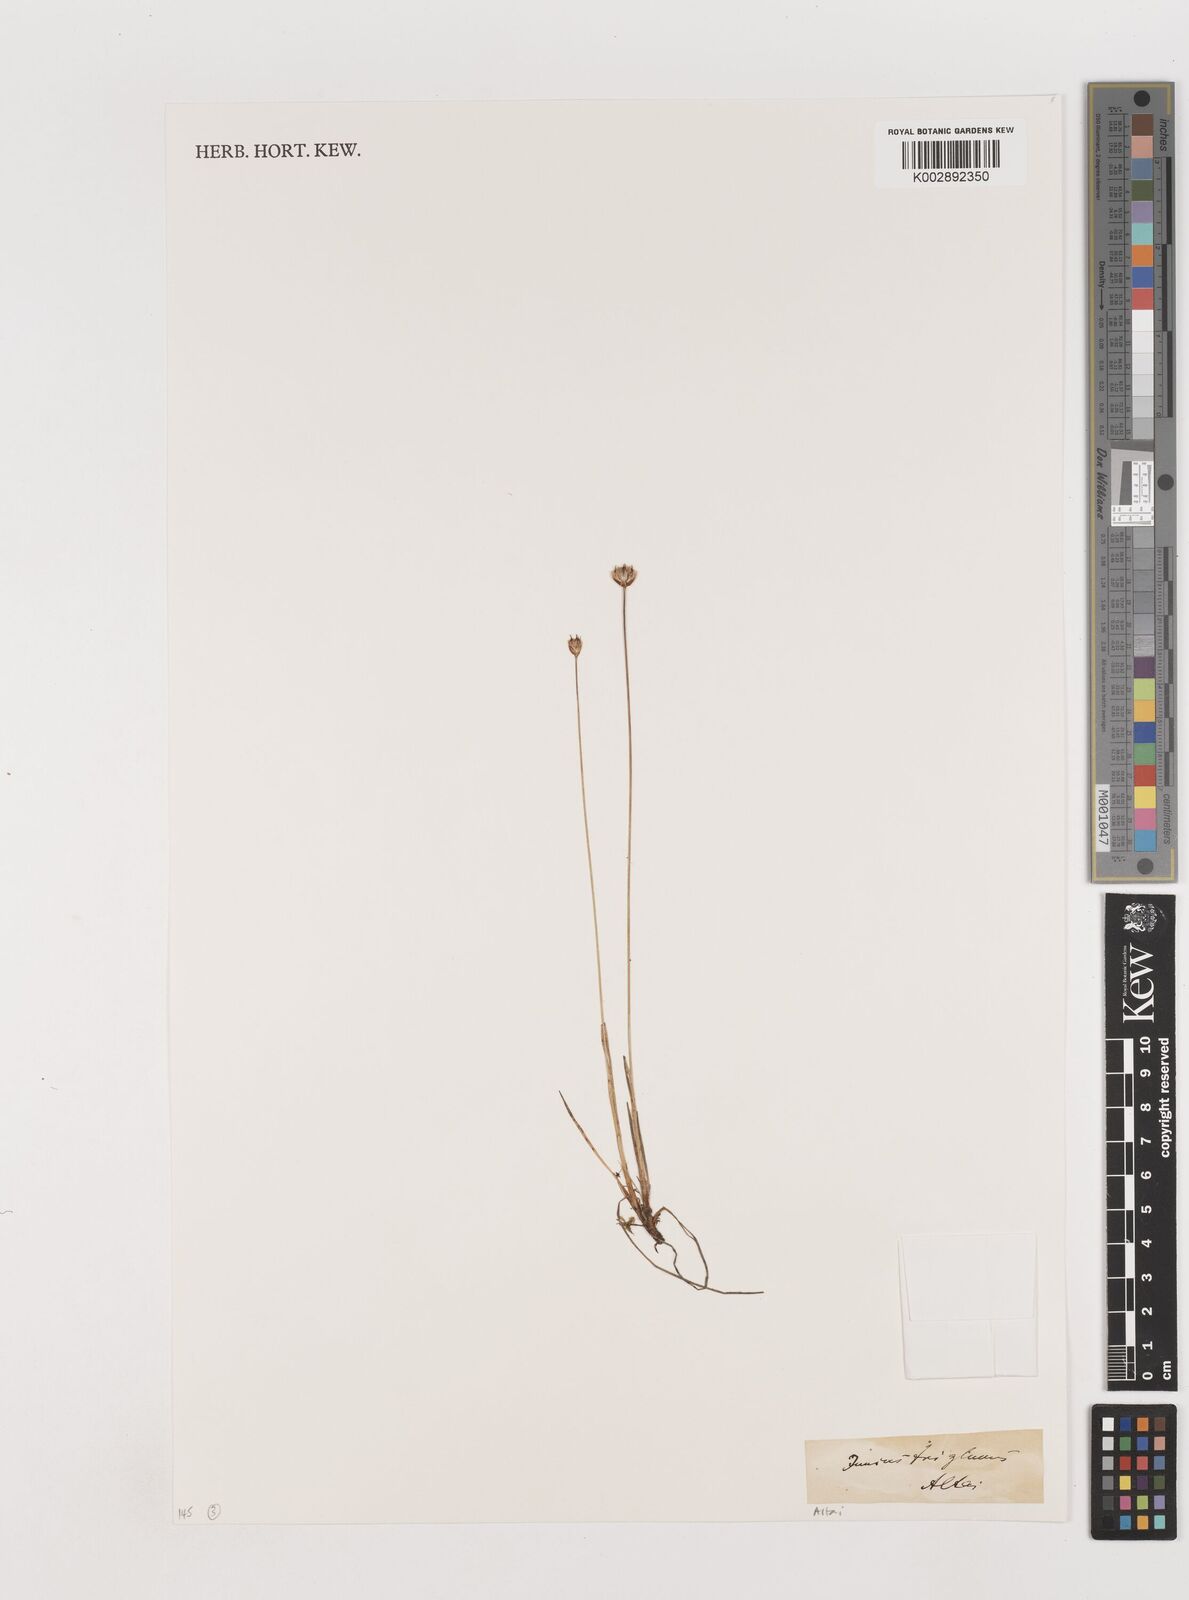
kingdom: Plantae
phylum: Tracheophyta
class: Liliopsida
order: Poales
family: Juncaceae
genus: Juncus
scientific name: Juncus triglumis
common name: Three-flowered rush
